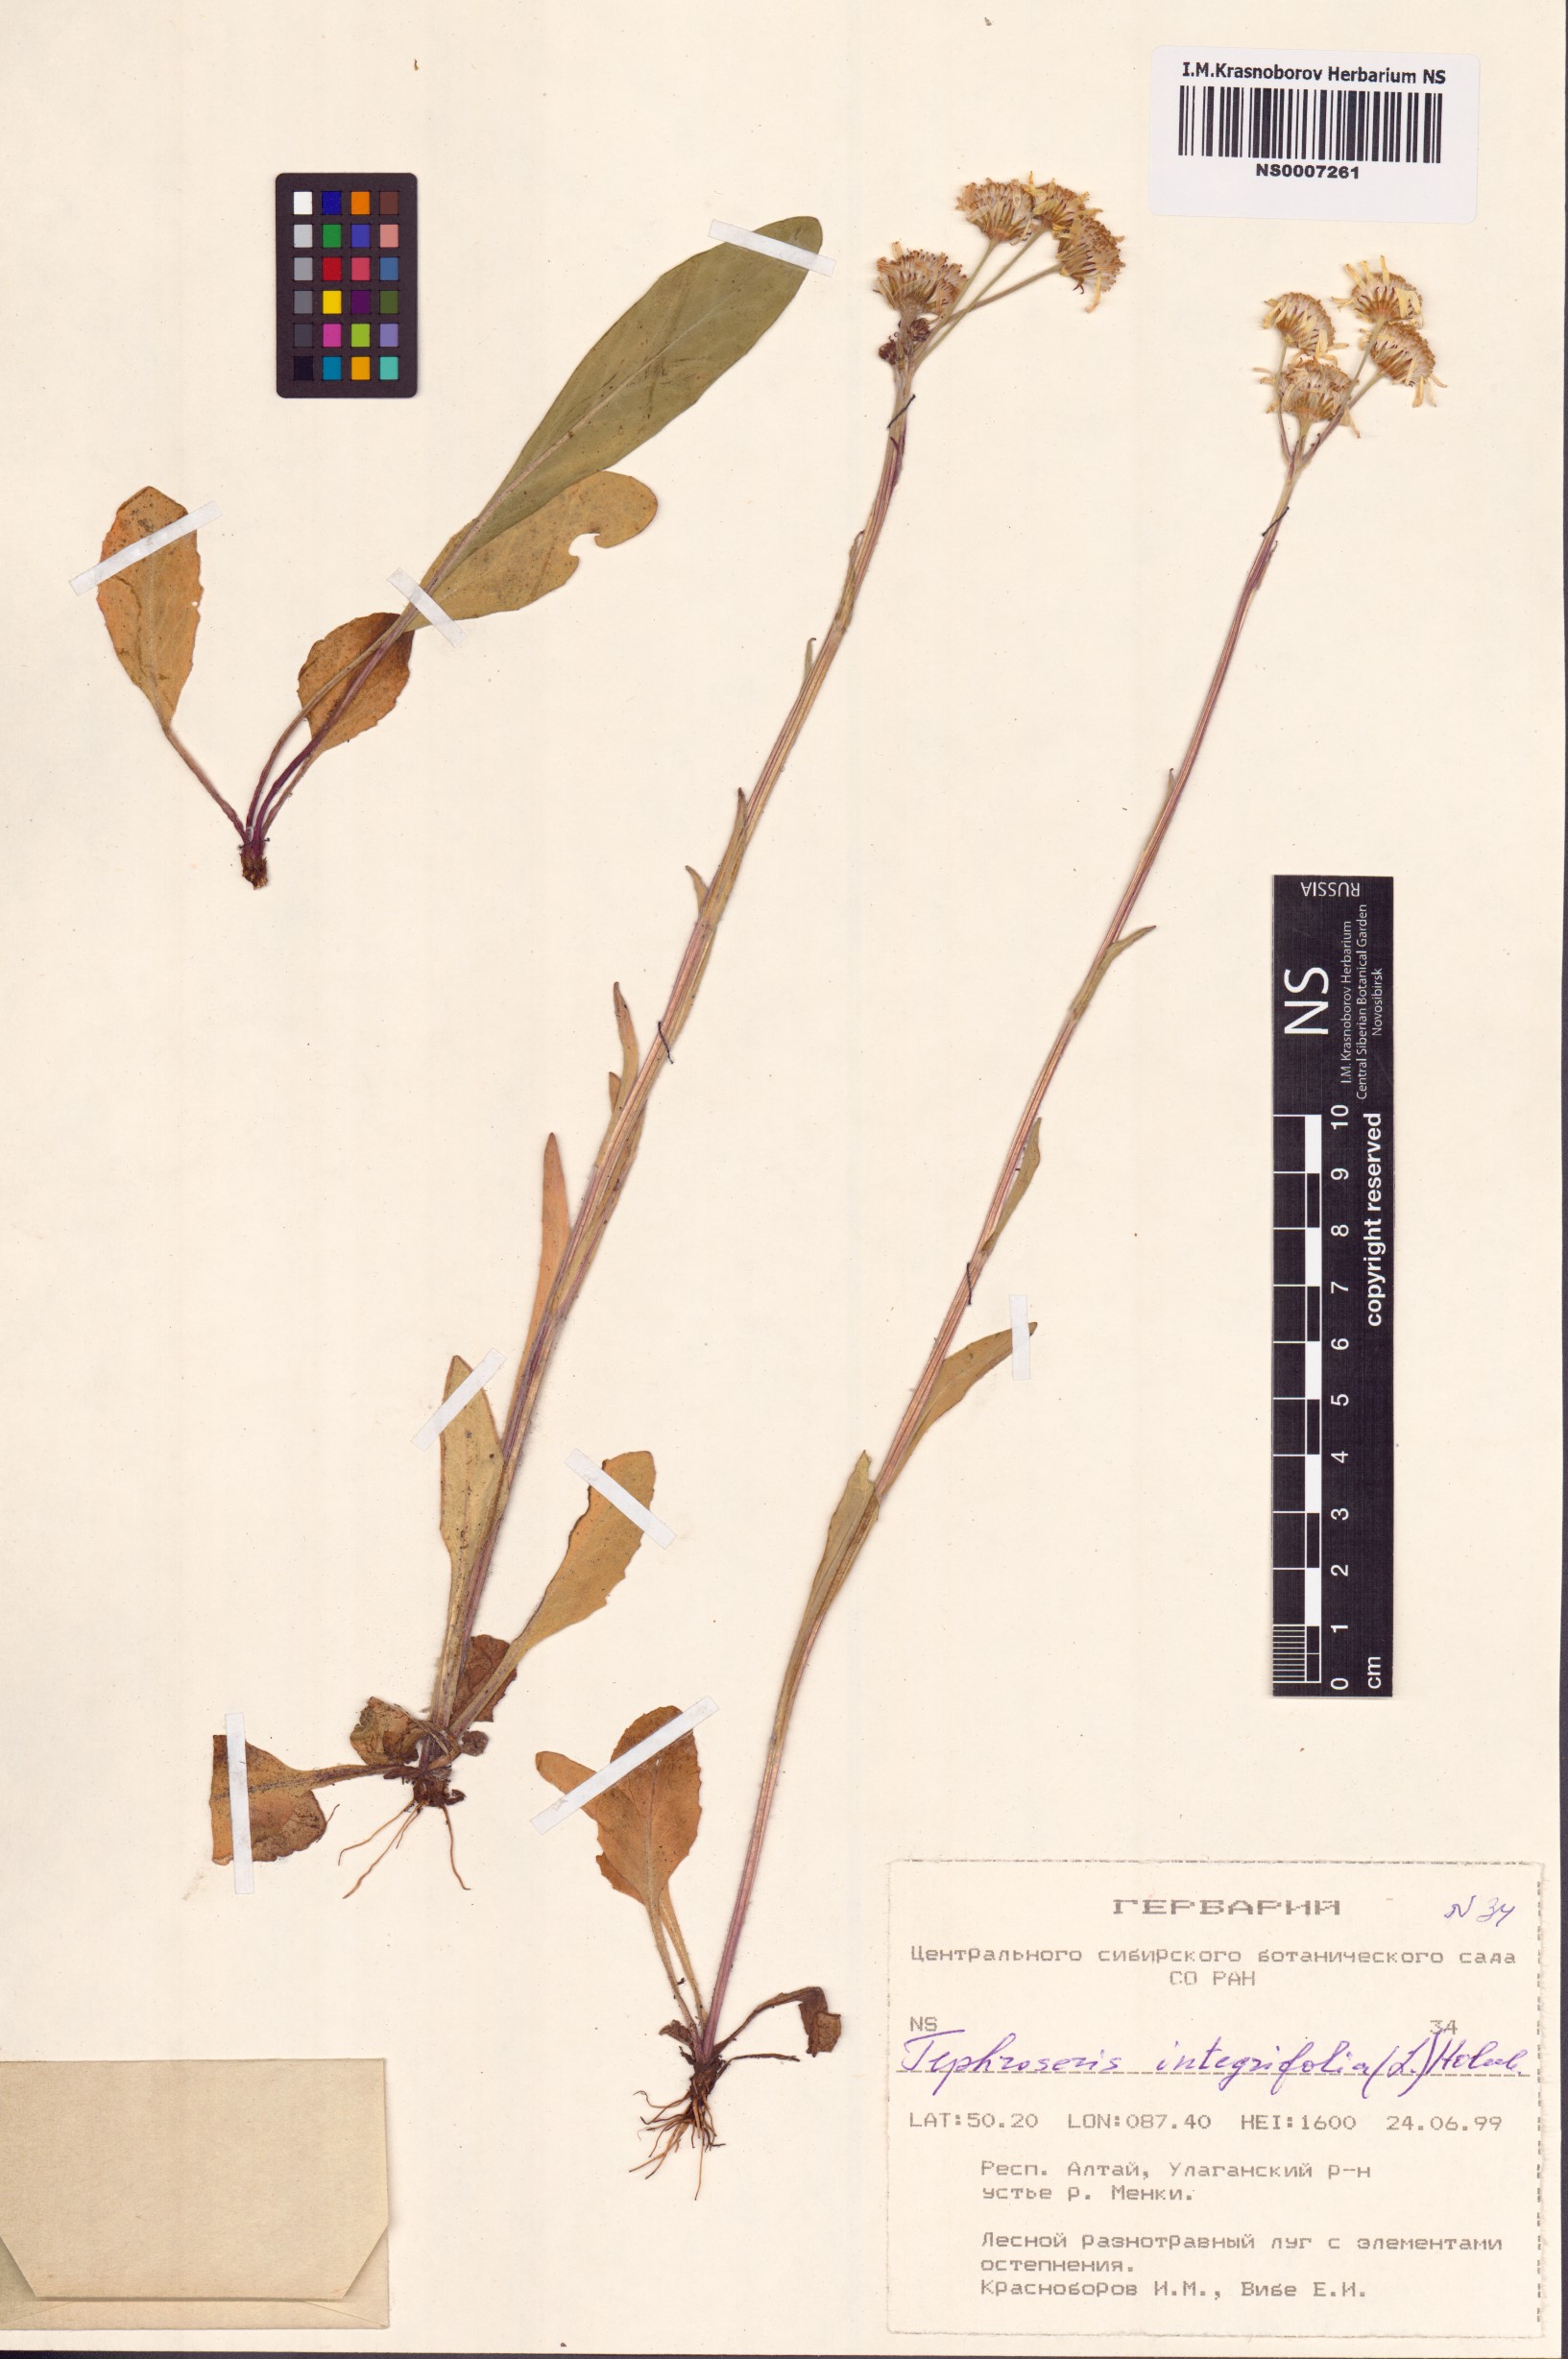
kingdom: Plantae
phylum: Tracheophyta
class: Magnoliopsida
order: Asterales
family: Asteraceae
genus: Tephroseris
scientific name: Tephroseris integrifolia
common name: Field fleawort
